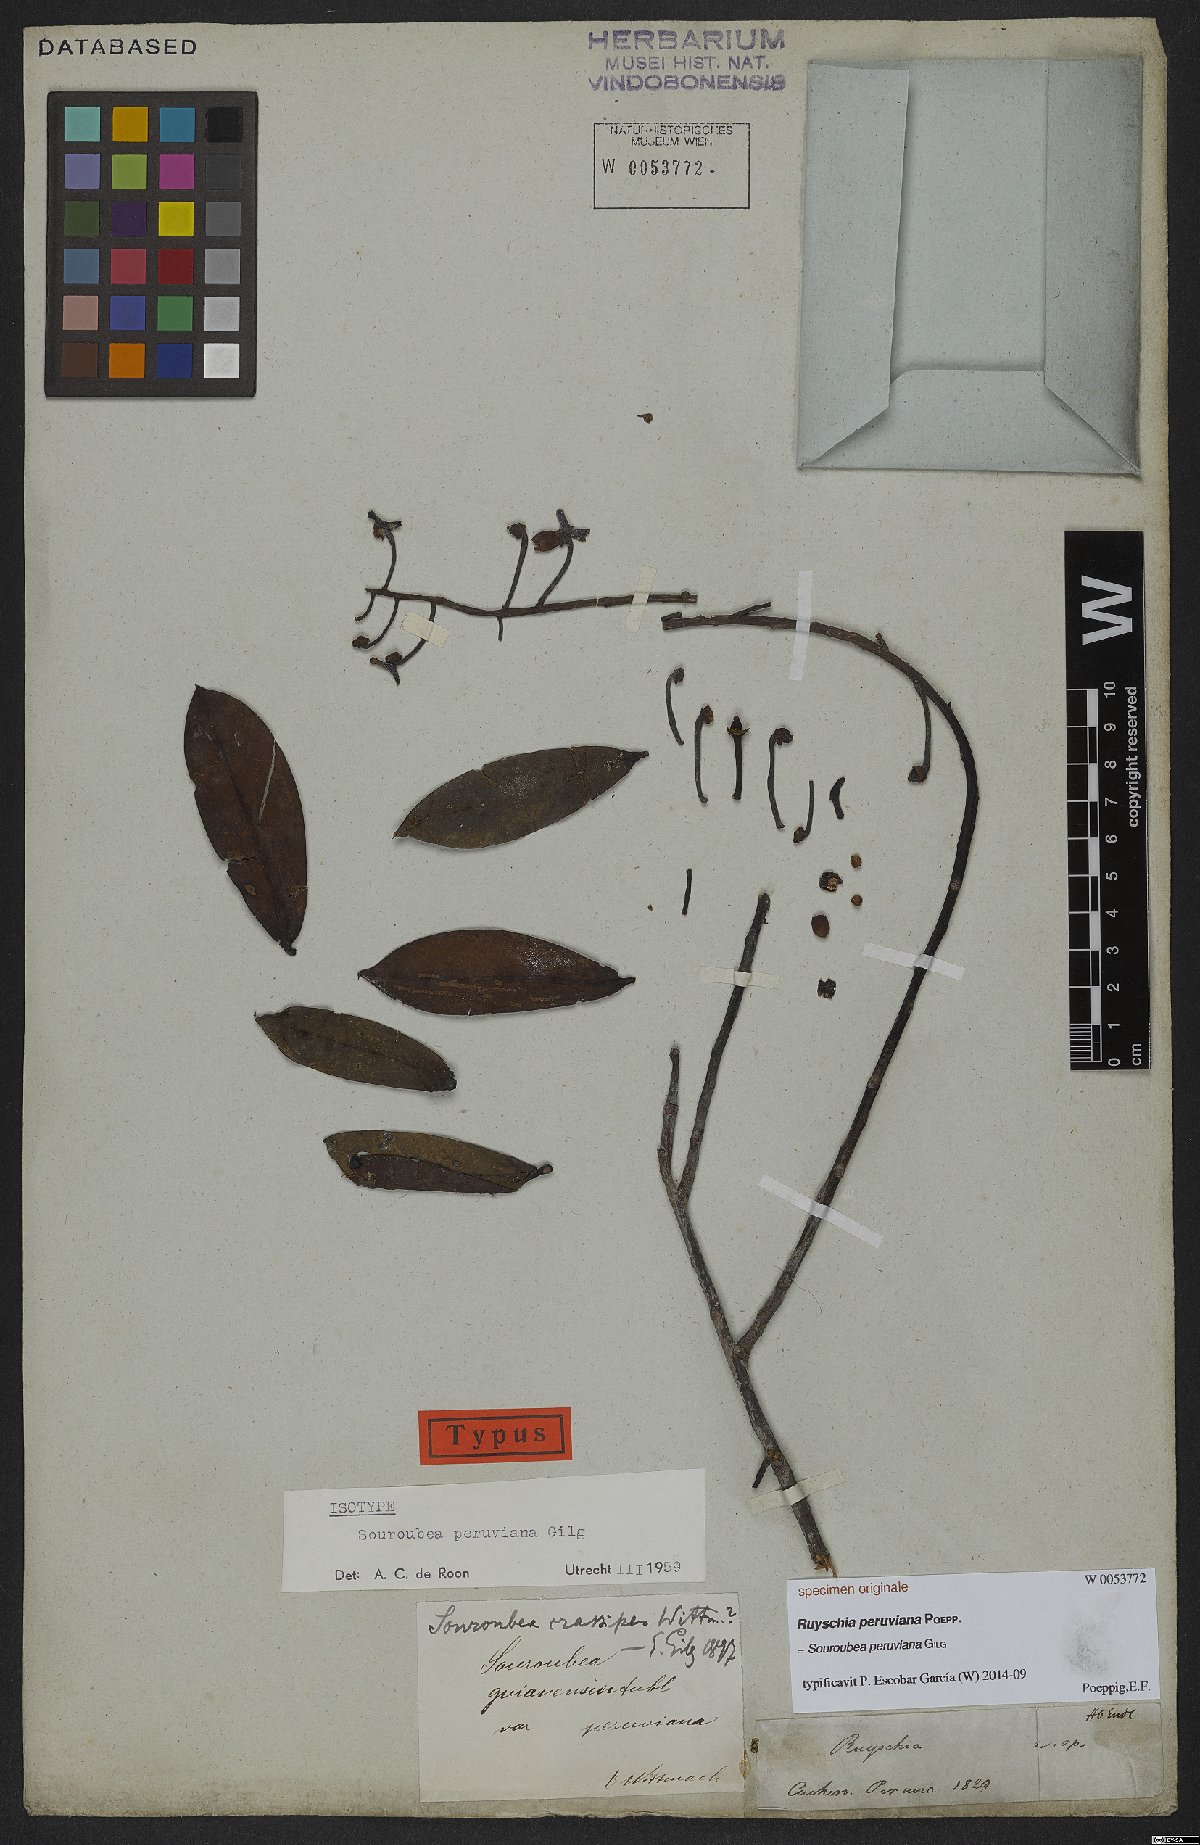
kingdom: Plantae
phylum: Tracheophyta
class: Magnoliopsida
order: Ericales
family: Marcgraviaceae
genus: Souroubea
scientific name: Souroubea peruviana
